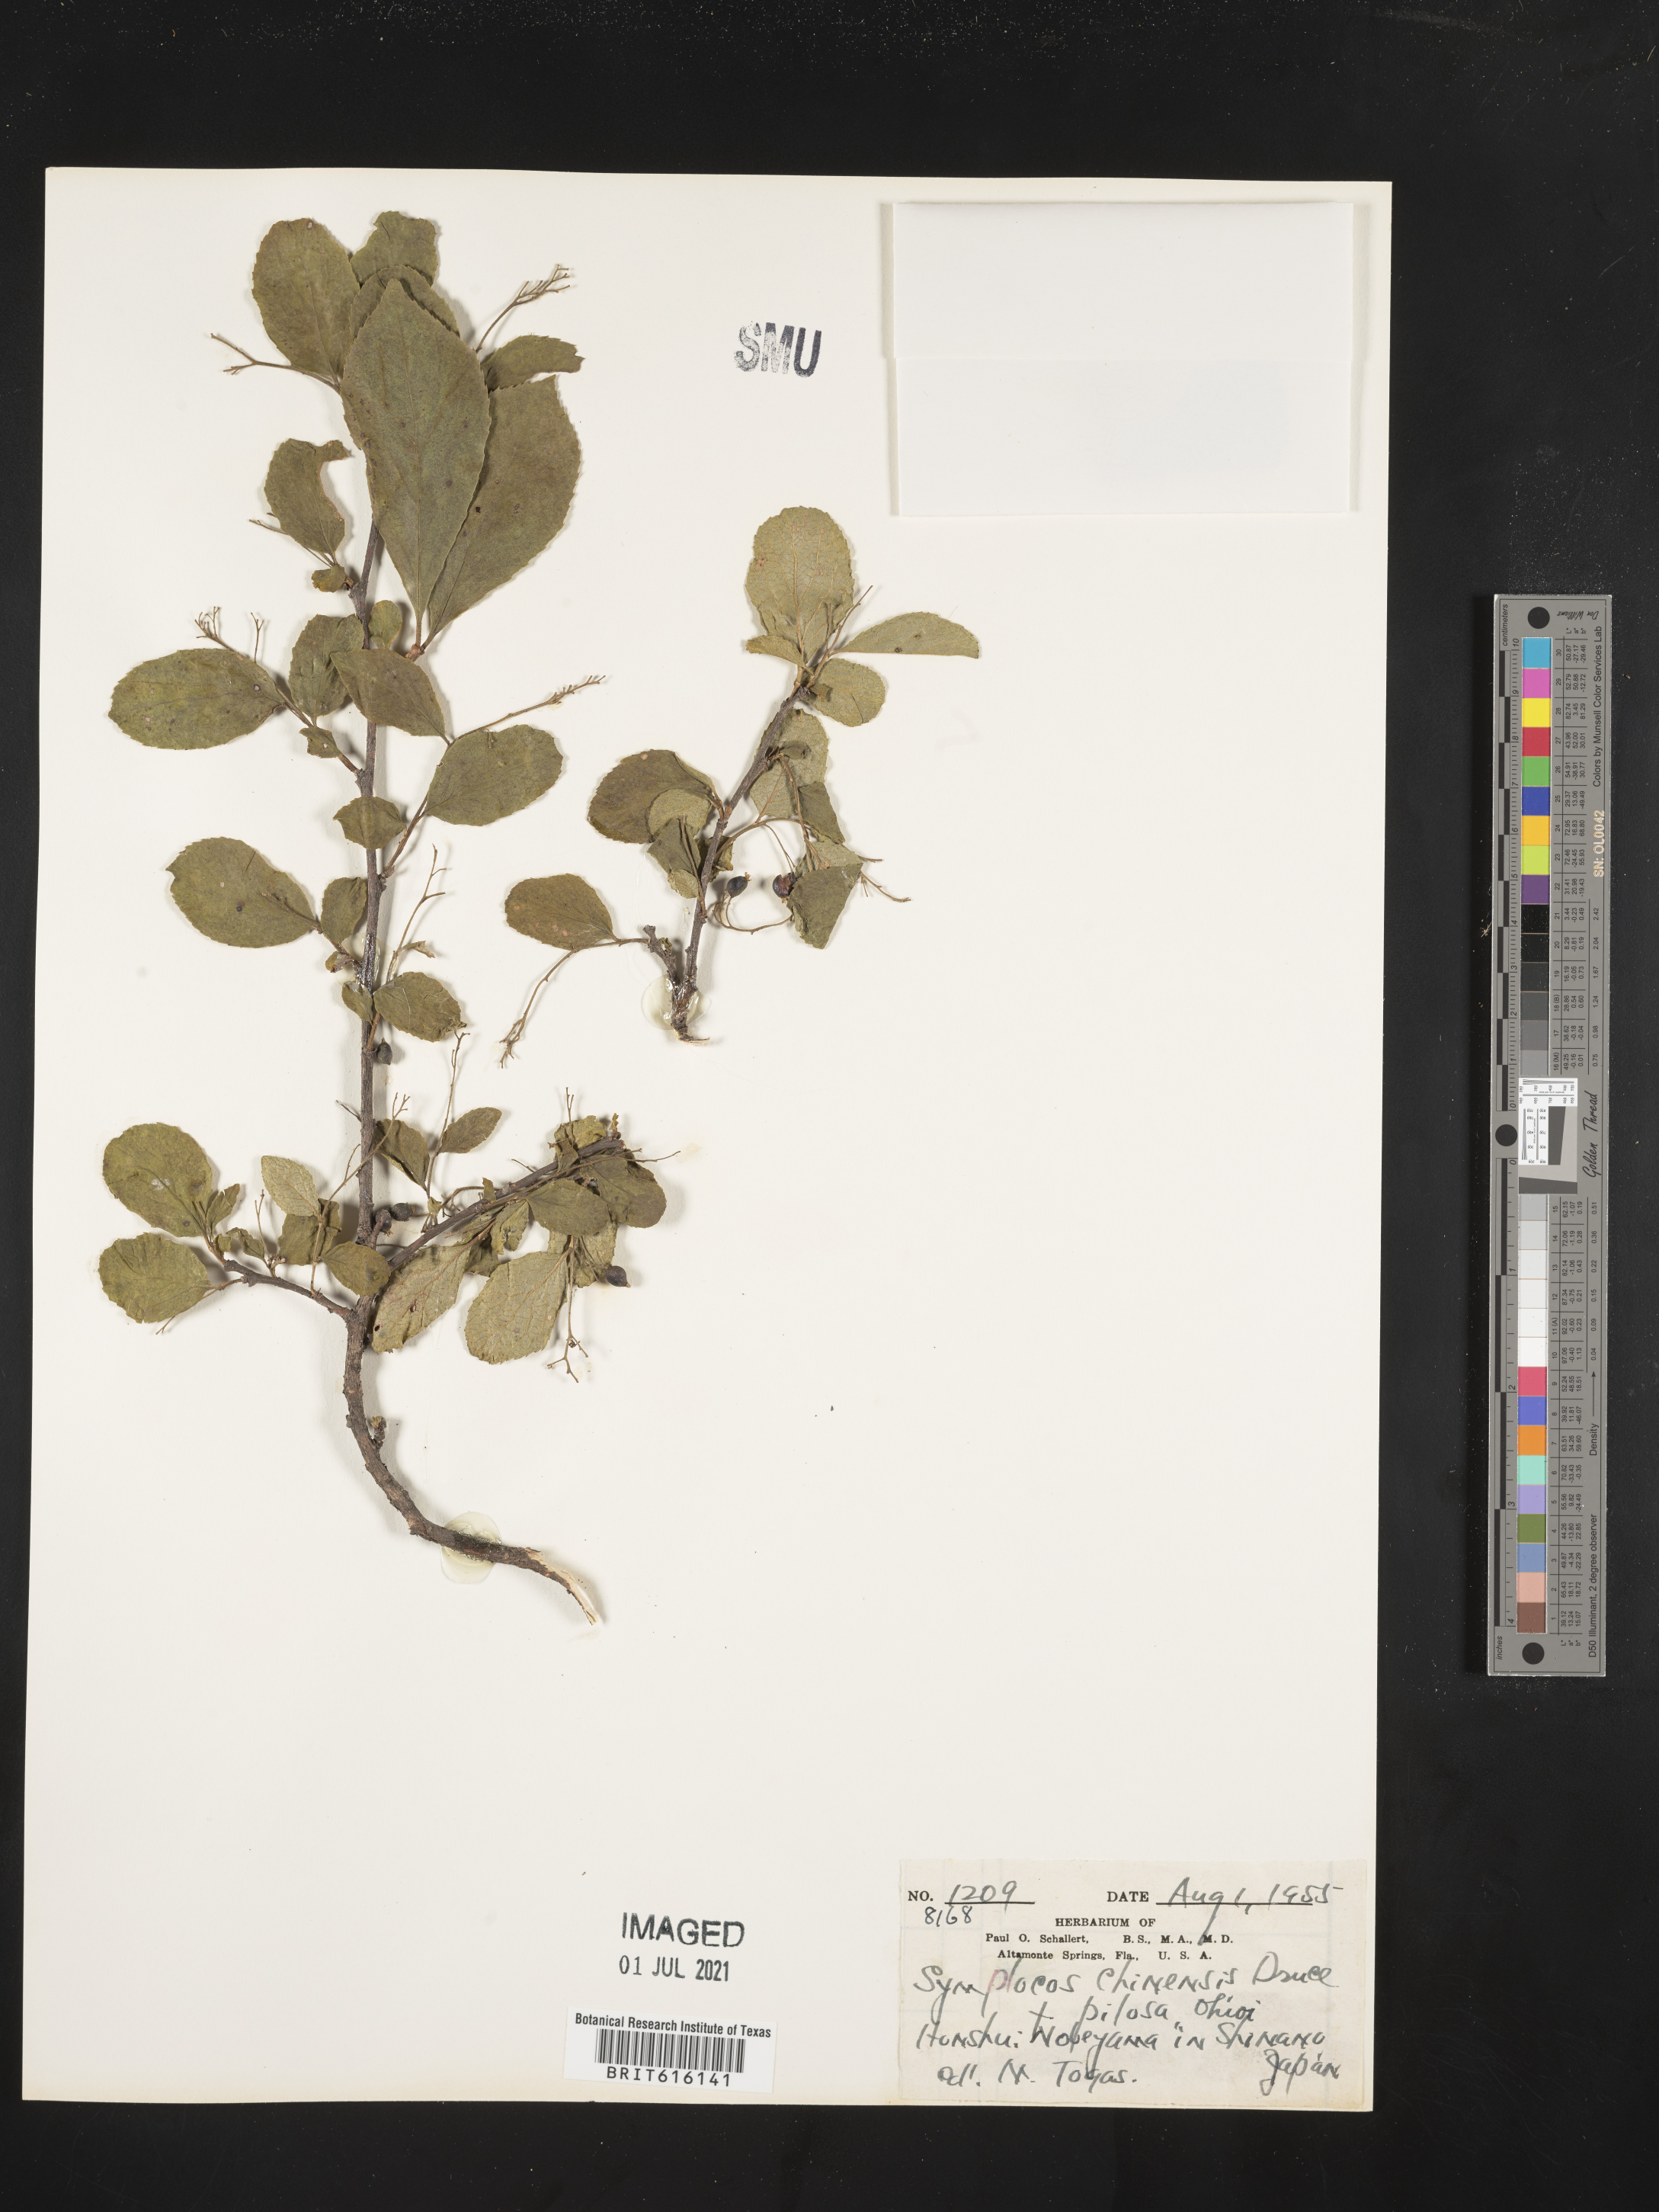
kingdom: Plantae
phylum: Tracheophyta
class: Magnoliopsida
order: Ericales
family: Symplocaceae
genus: Symplocos
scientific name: Symplocos paniculata
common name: Sapphire-berry
